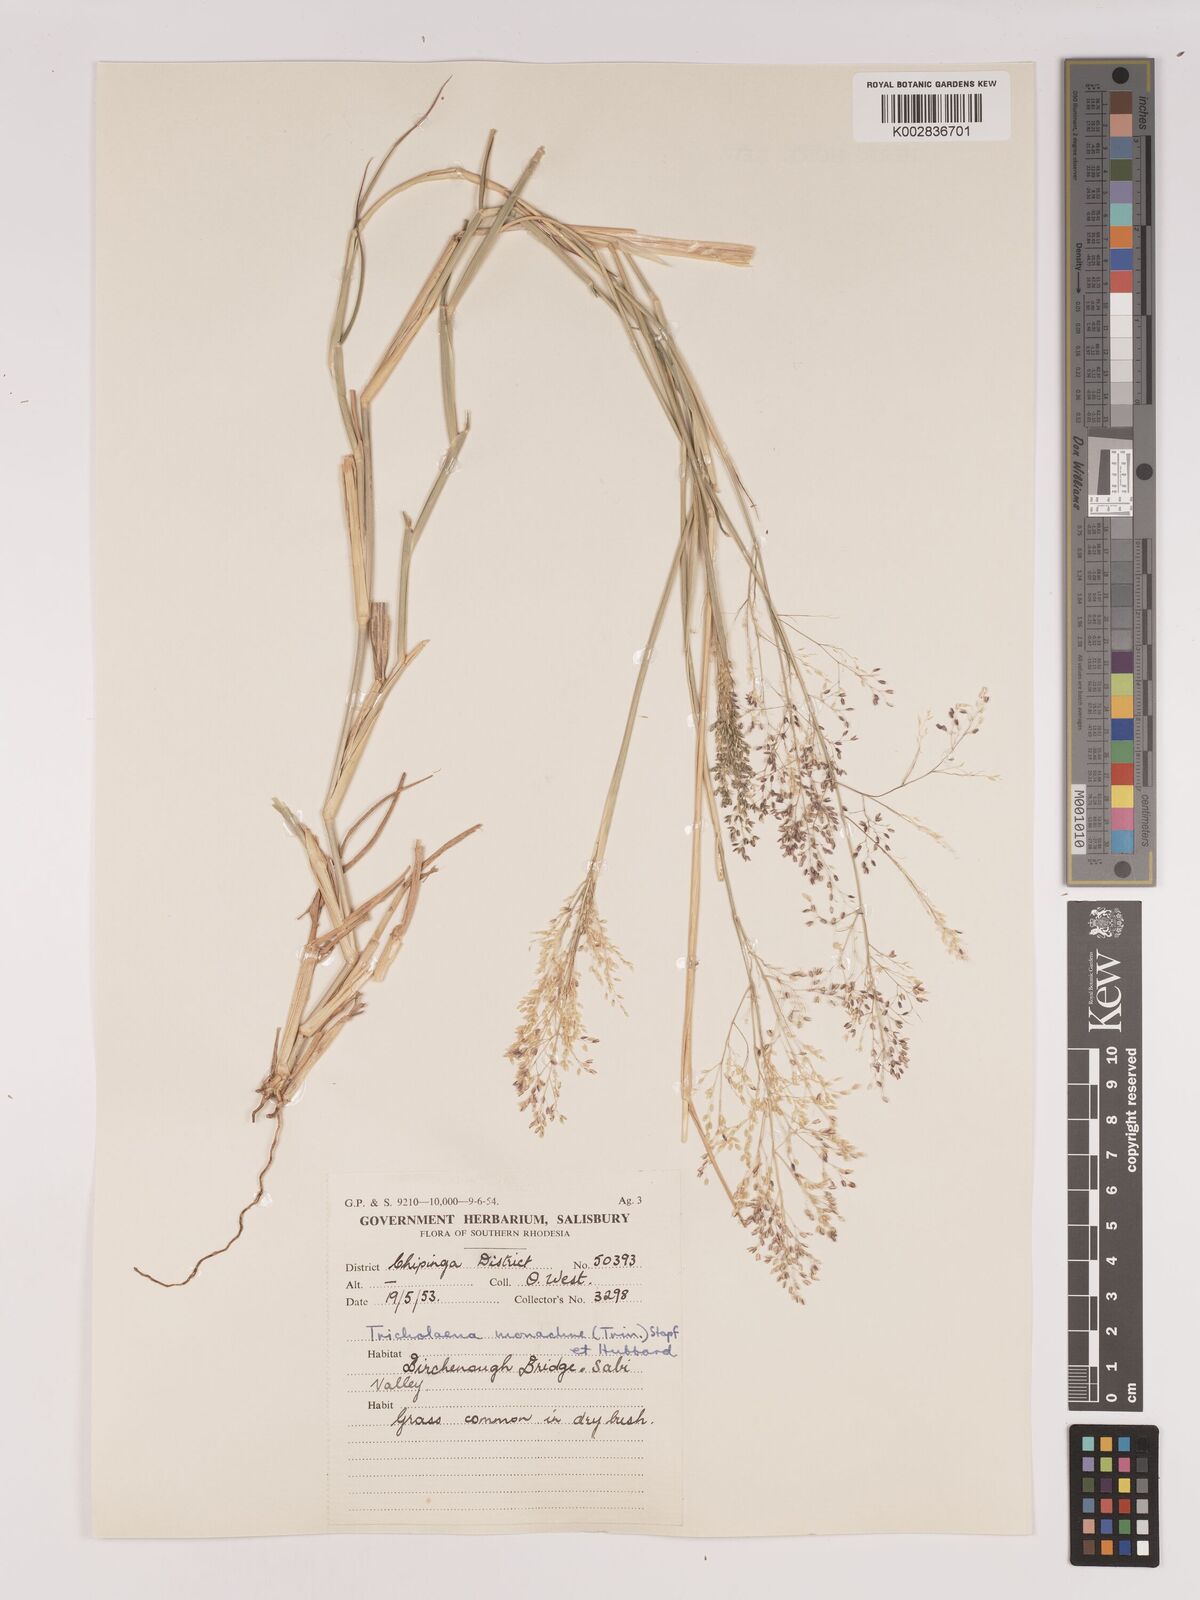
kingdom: Plantae
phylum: Tracheophyta
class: Liliopsida
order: Poales
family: Poaceae
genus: Tricholaena
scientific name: Tricholaena monachne
